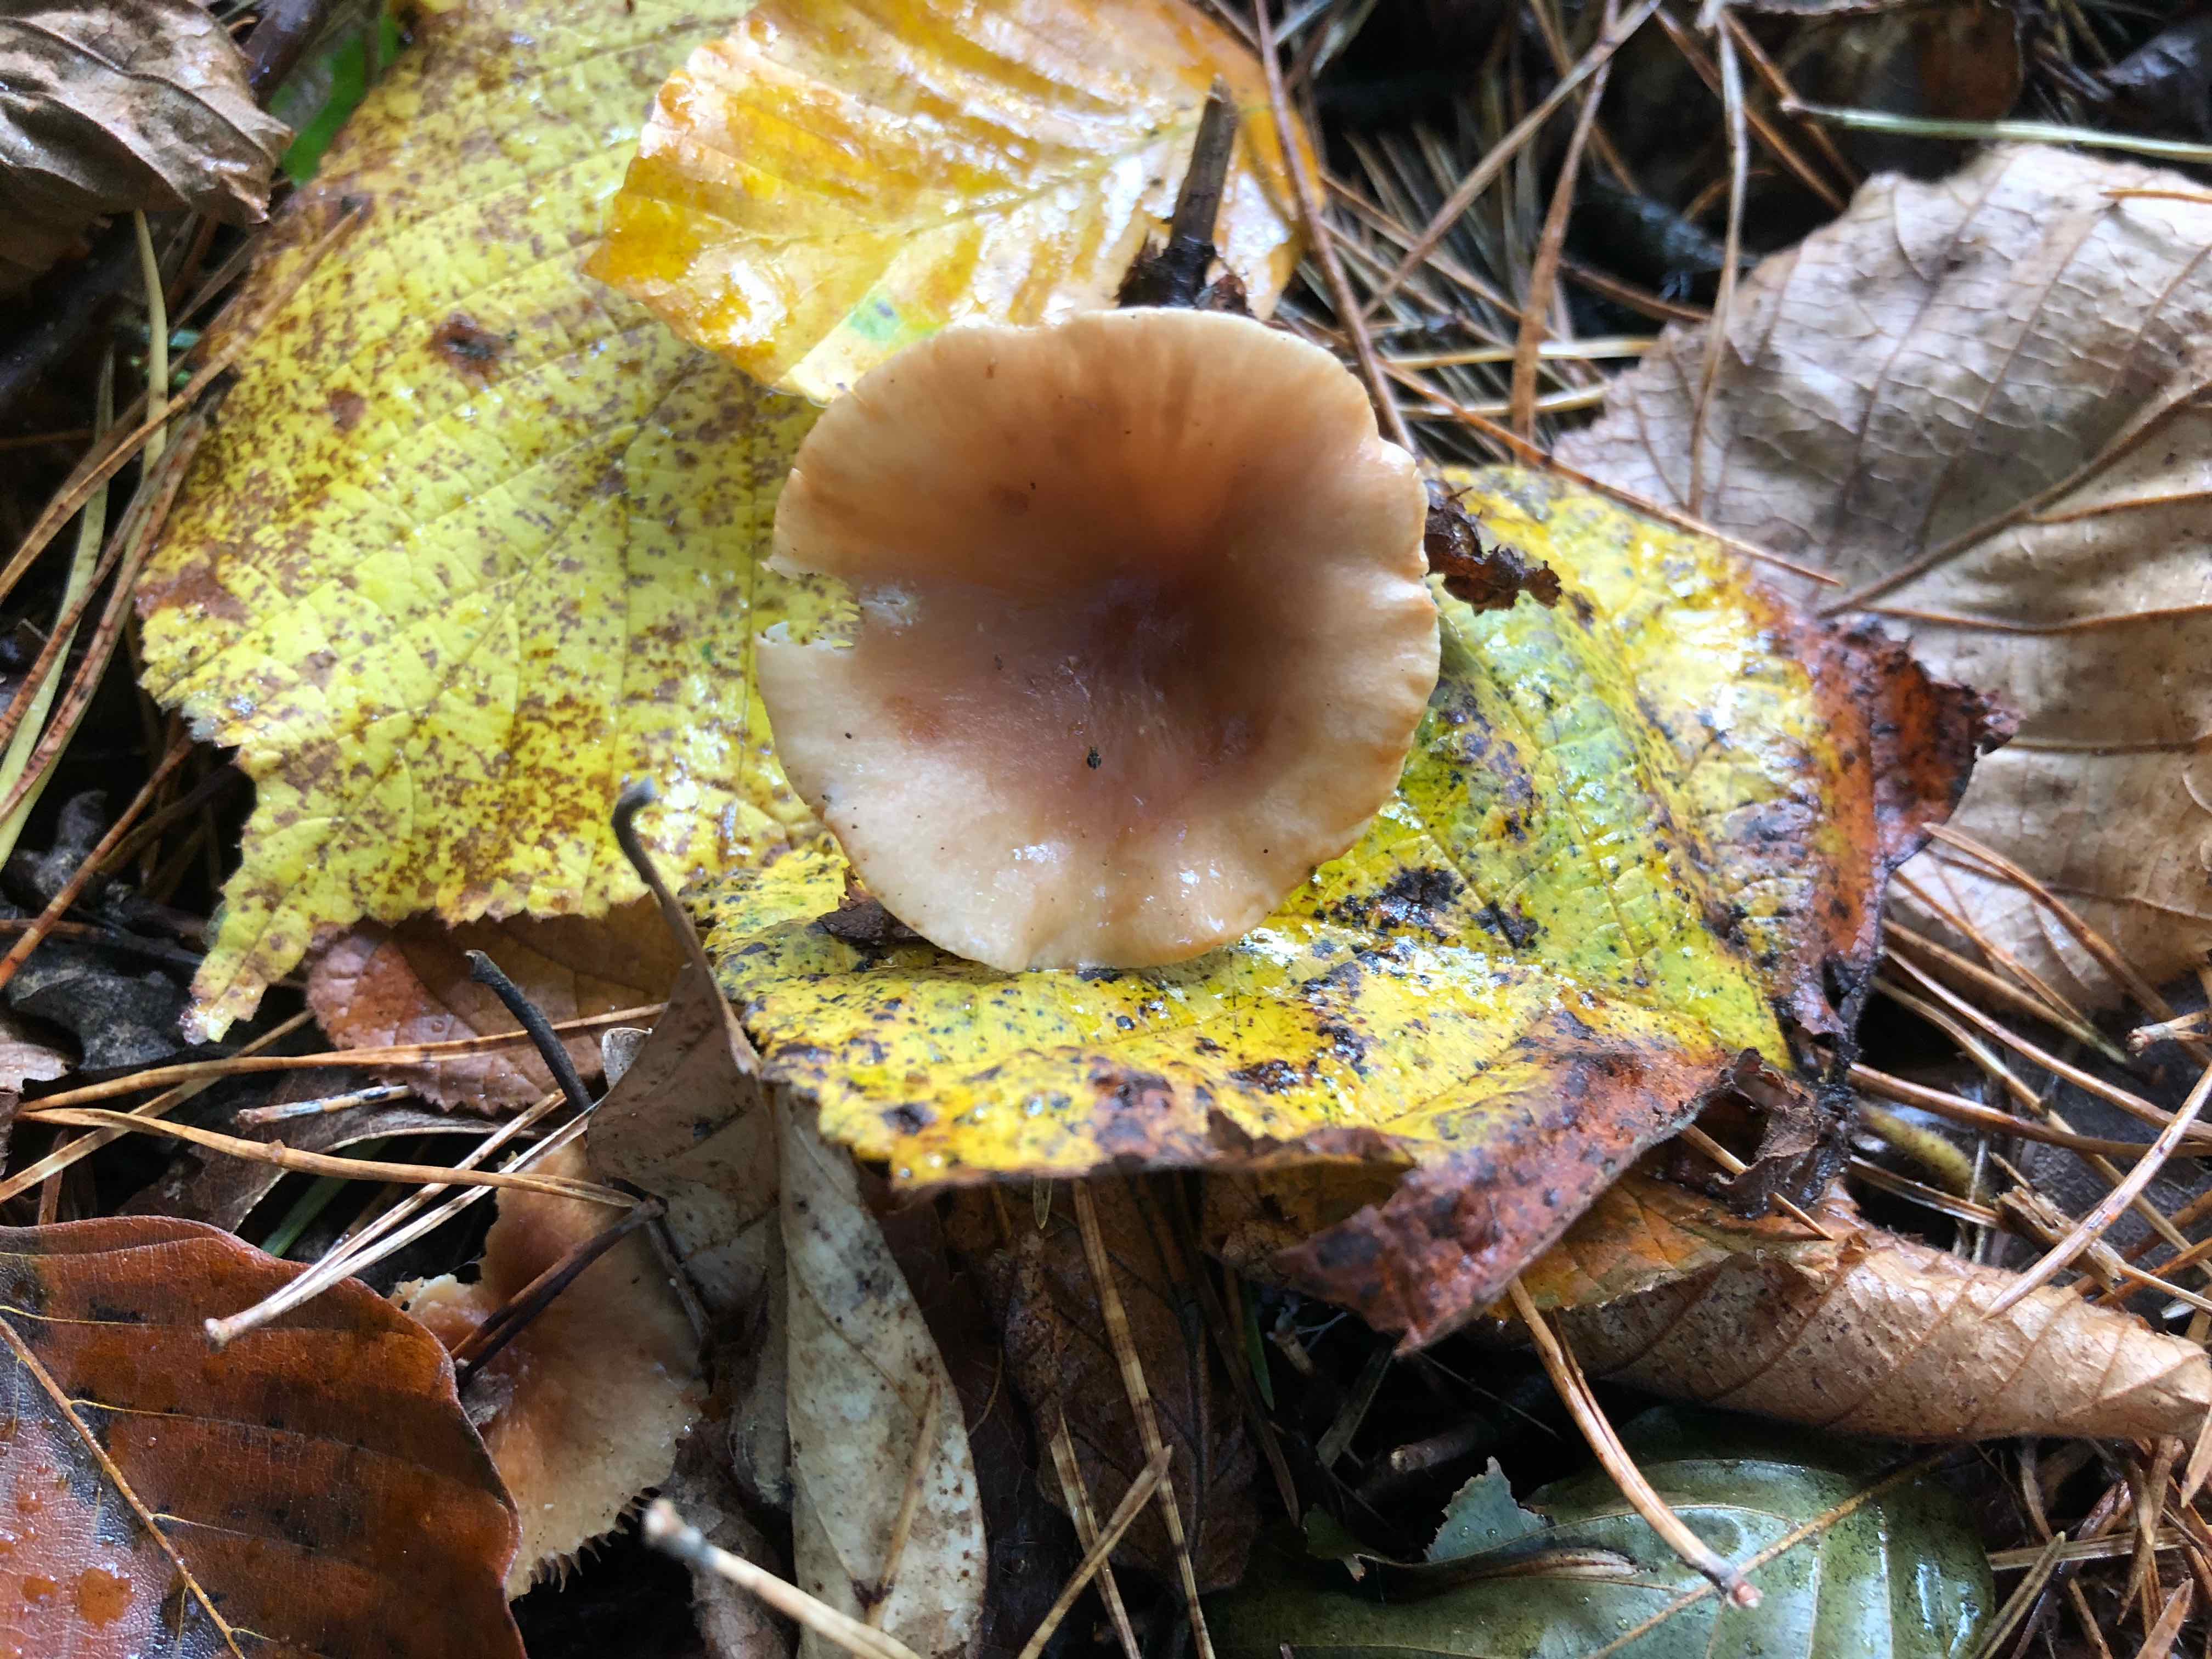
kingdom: Fungi
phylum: Basidiomycota
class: Agaricomycetes
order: Russulales
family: Russulaceae
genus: Lactarius
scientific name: Lactarius
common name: mælkehat
